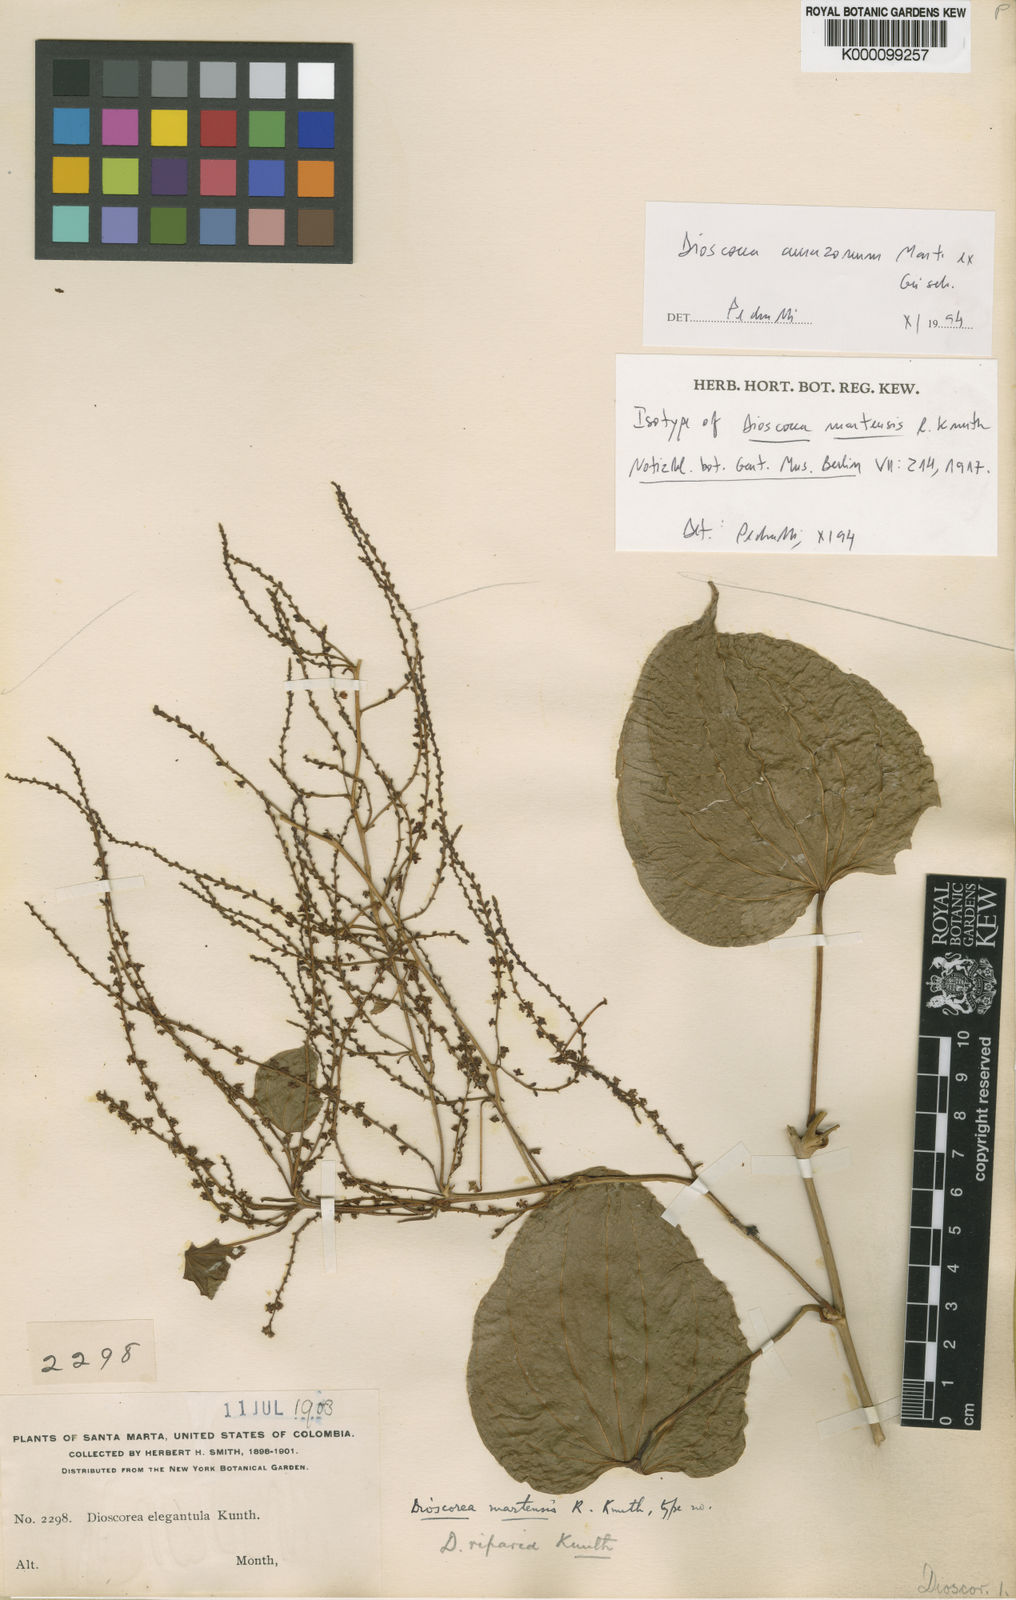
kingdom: Plantae
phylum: Tracheophyta
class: Liliopsida
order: Dioscoreales
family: Dioscoreaceae
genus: Dioscorea
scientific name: Dioscorea martensis
